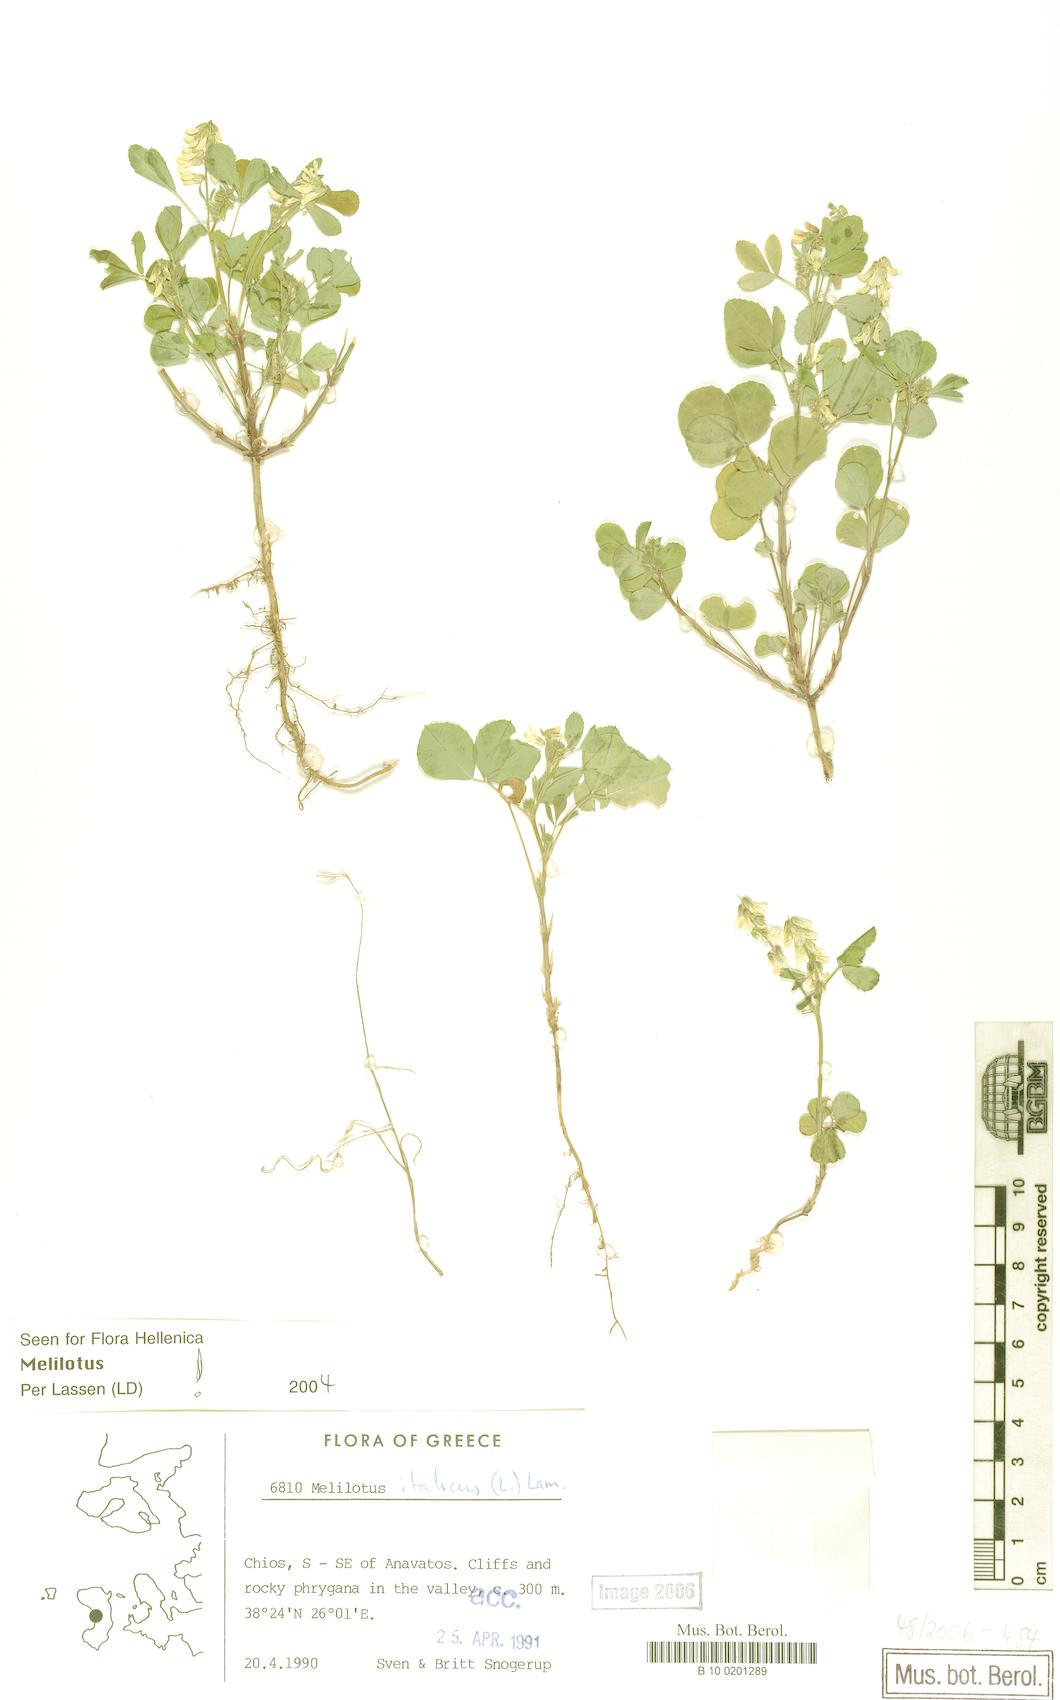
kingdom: Plantae
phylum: Tracheophyta
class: Magnoliopsida
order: Fabales
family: Fabaceae
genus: Melilotus
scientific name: Melilotus italicus
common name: Italian melilot
